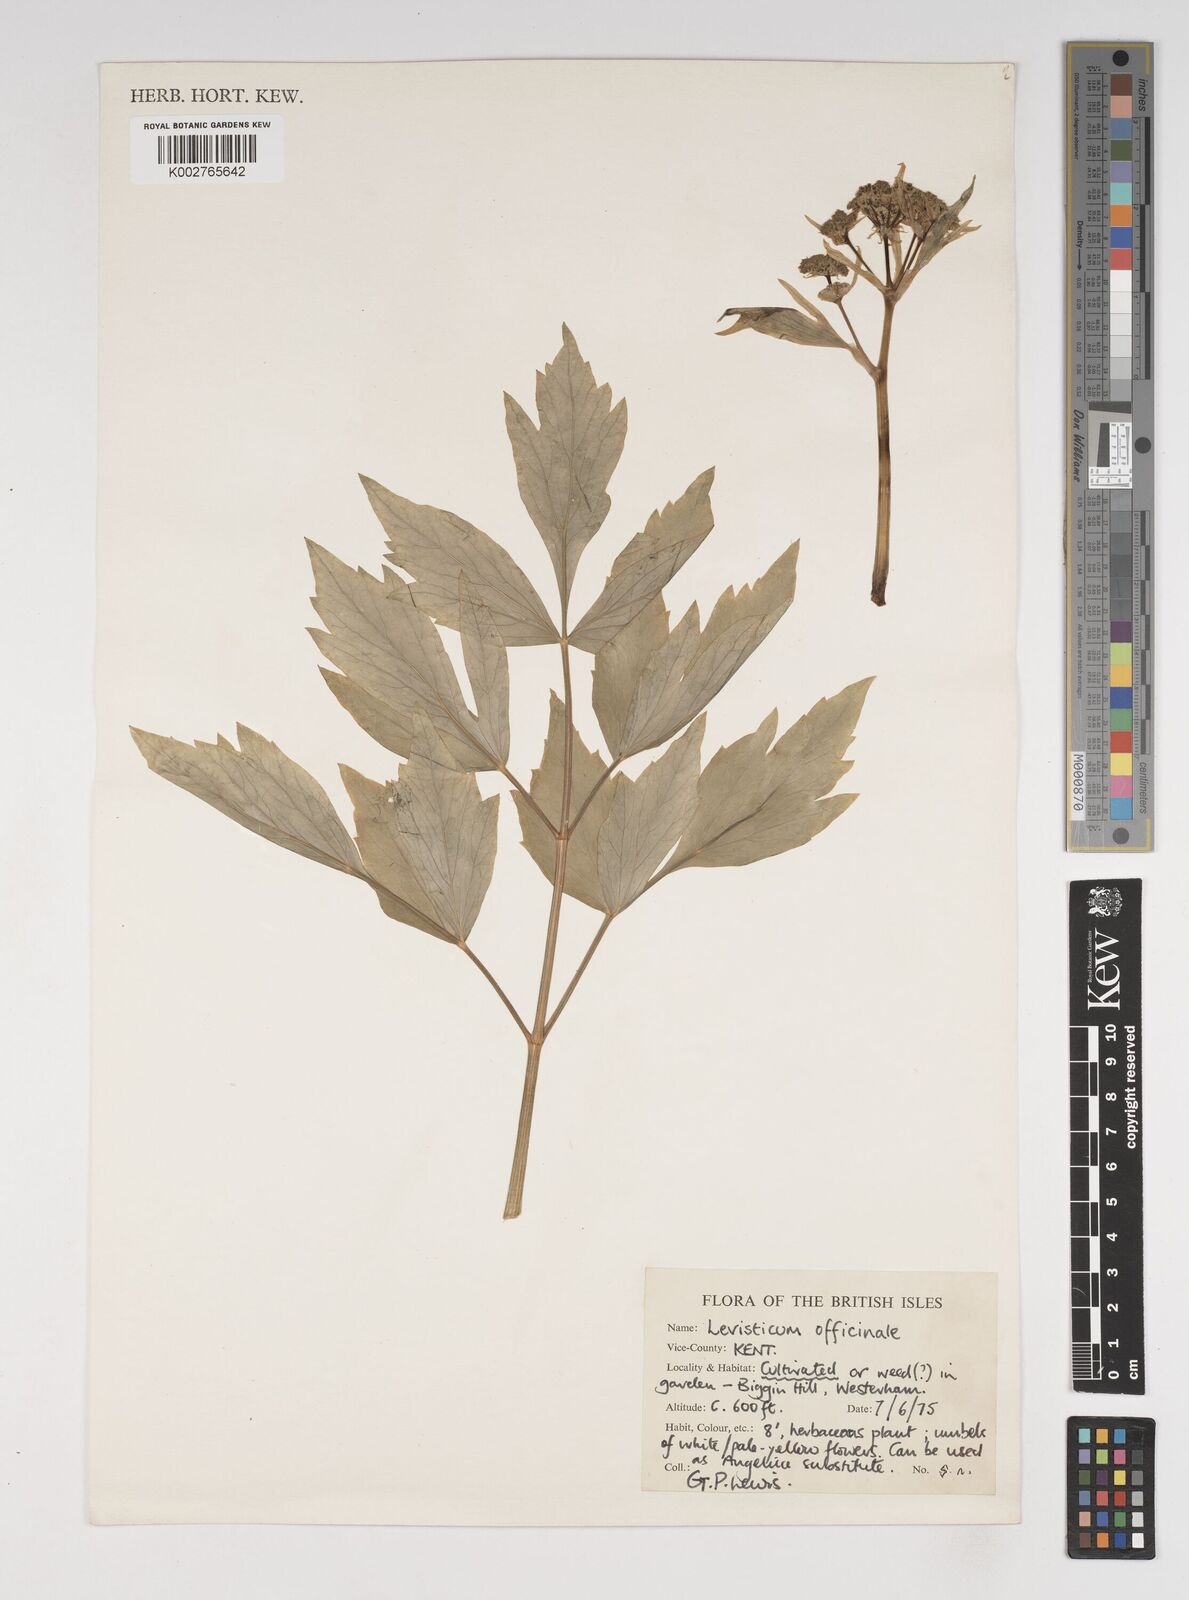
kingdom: Plantae
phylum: Tracheophyta
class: Magnoliopsida
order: Apiales
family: Apiaceae
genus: Levisticum
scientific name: Levisticum officinale
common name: Lovage
